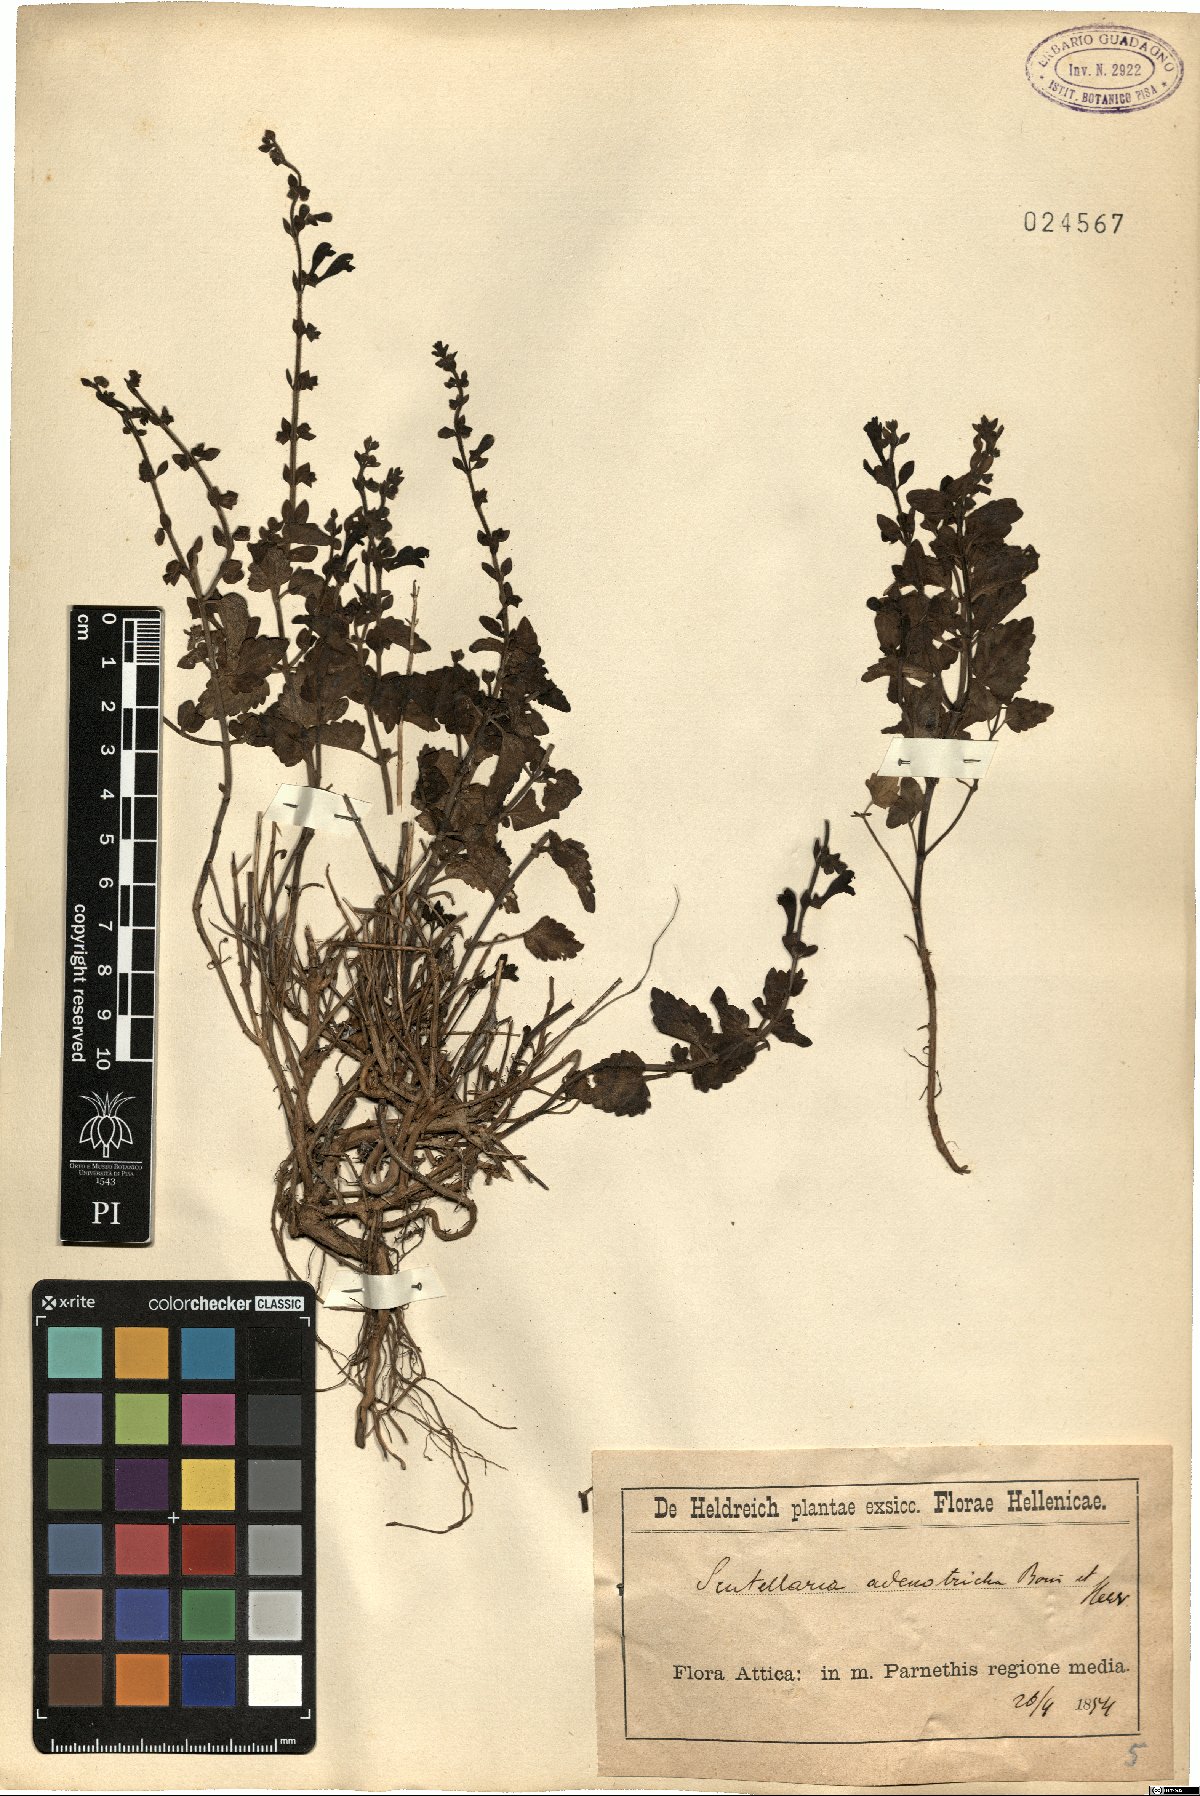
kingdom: Plantae
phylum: Tracheophyta
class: Magnoliopsida
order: Lamiales
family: Lamiaceae
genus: Scutellaria
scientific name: Scutellaria columnae
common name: Large skullcap
